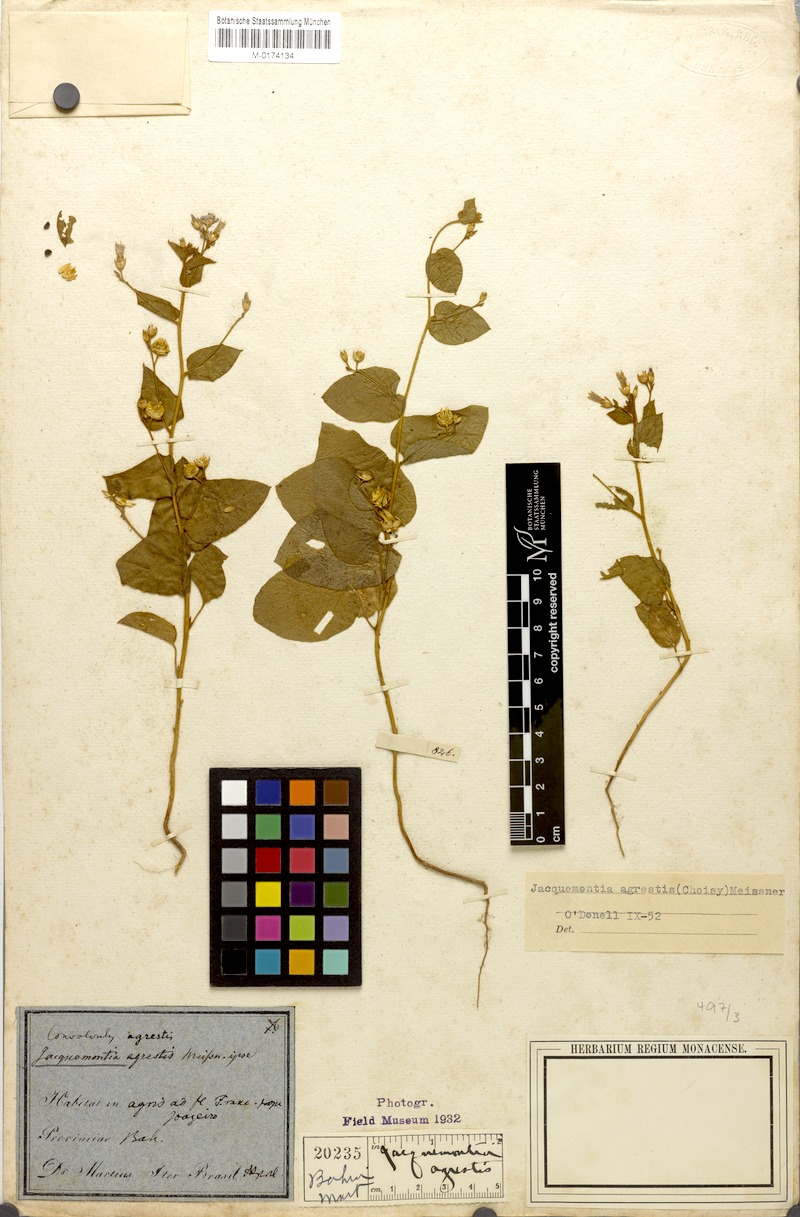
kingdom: Plantae
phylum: Tracheophyta
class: Magnoliopsida
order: Solanales
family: Convolvulaceae
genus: Jacquemontia
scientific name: Jacquemontia agrestis
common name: Midnightblue clustervine
